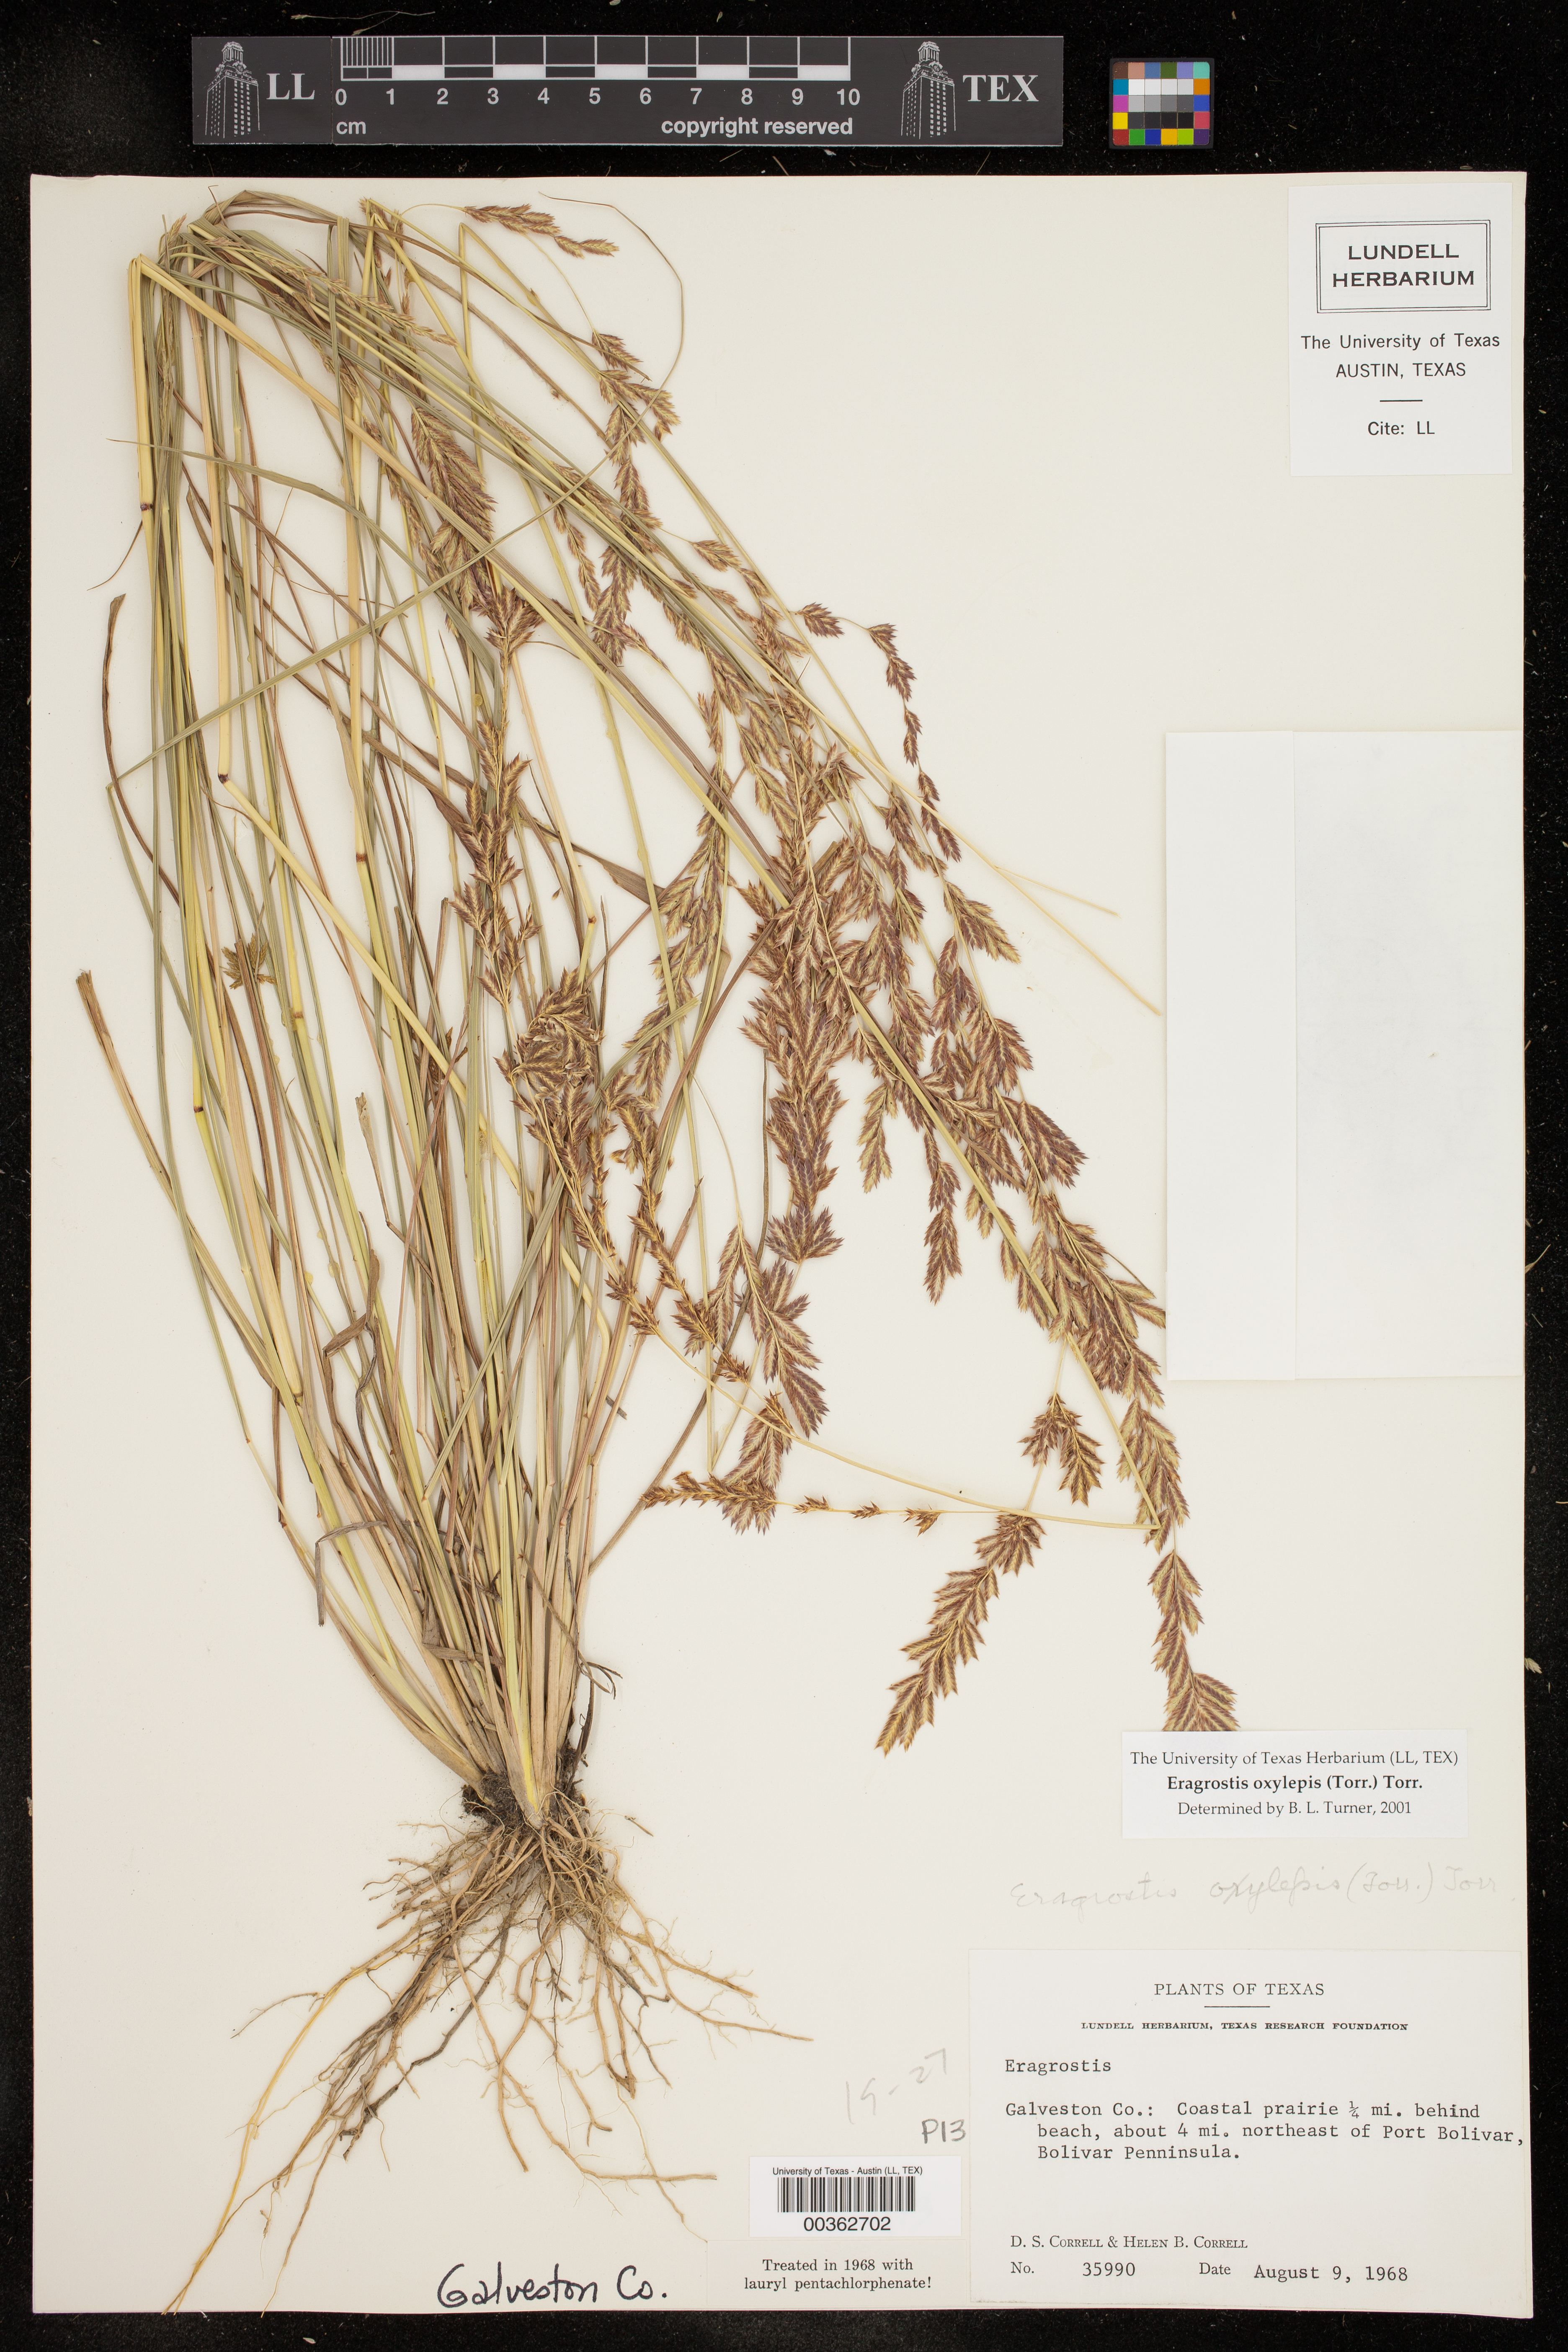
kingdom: Plantae
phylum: Tracheophyta
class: Liliopsida
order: Poales
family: Poaceae
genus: Eragrostis
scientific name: Eragrostis secundiflora
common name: Red love grass
